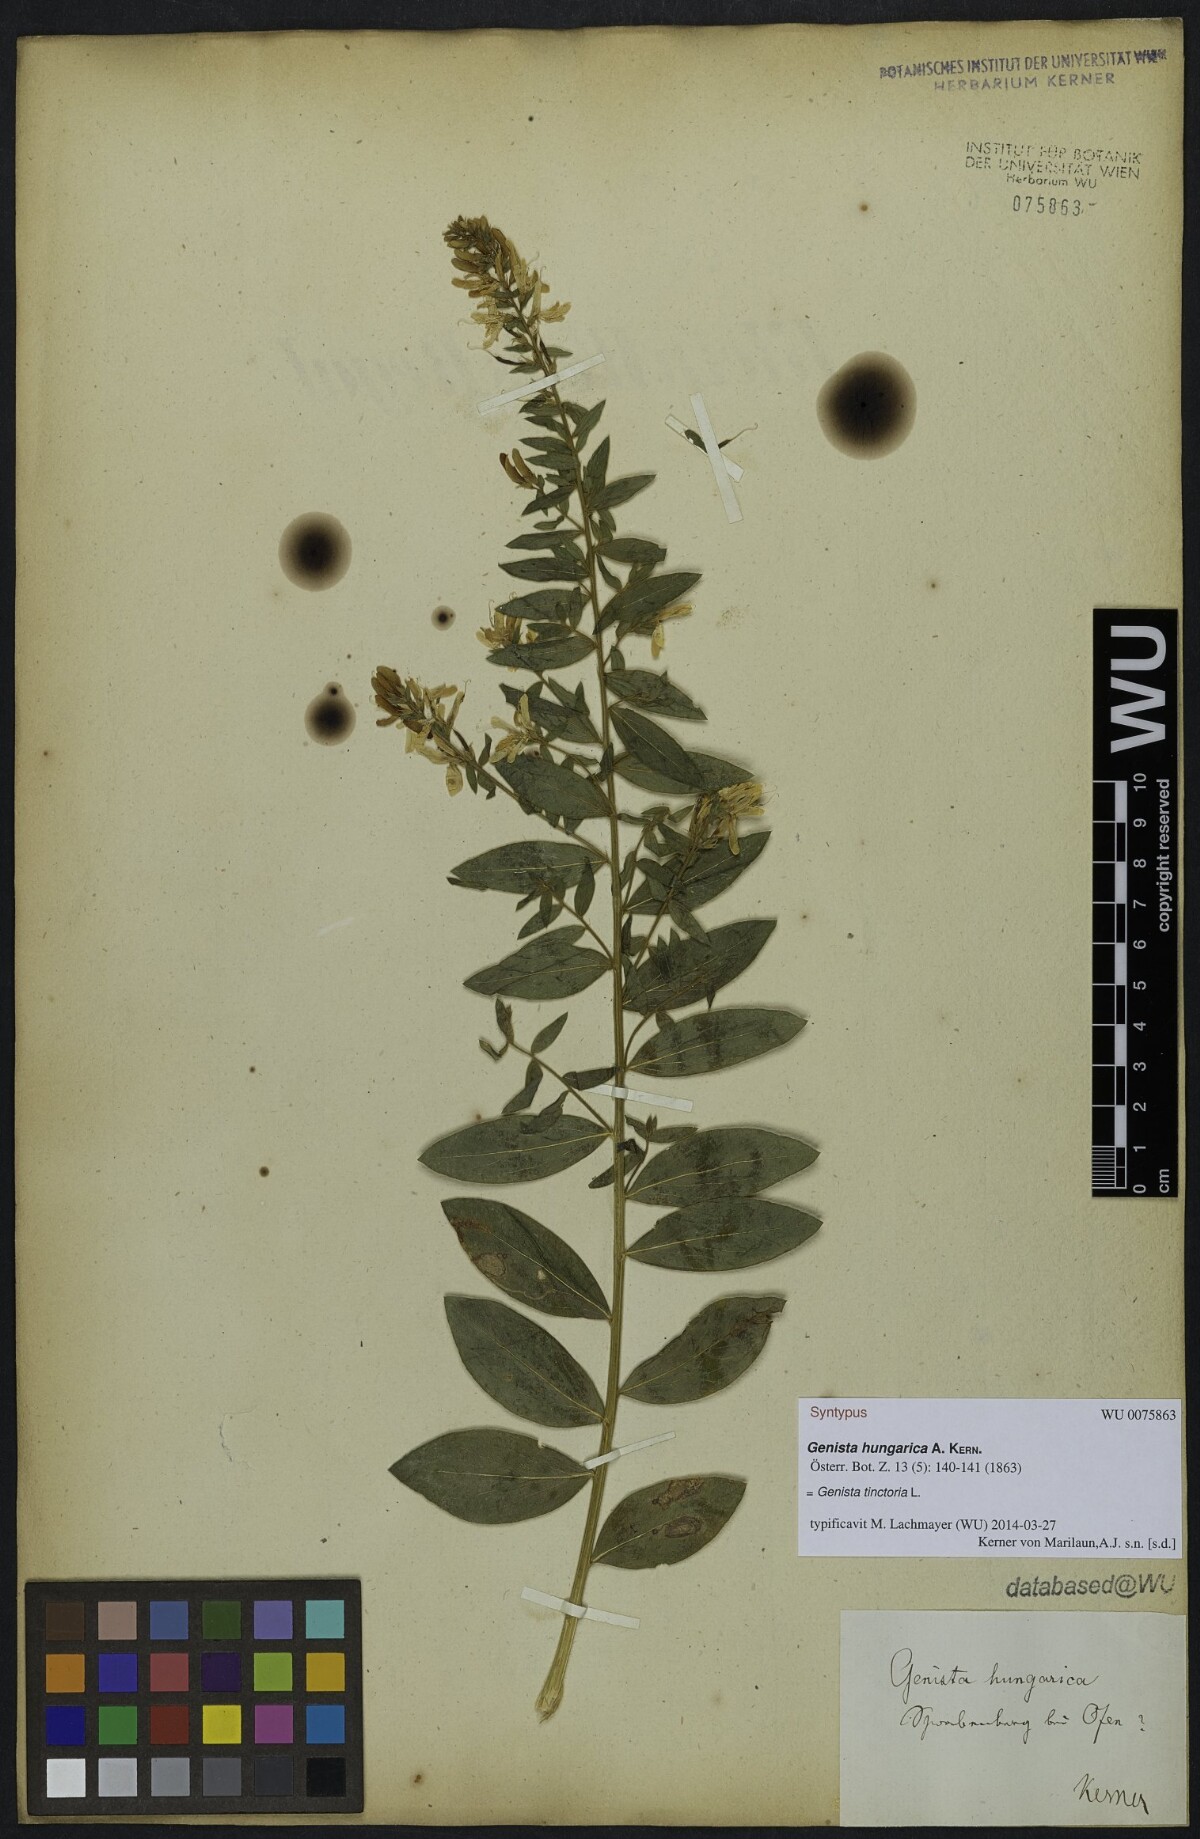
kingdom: Plantae
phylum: Tracheophyta
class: Magnoliopsida
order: Fabales
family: Fabaceae
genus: Genista
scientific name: Genista tinctoria
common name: Dyer's greenweed
